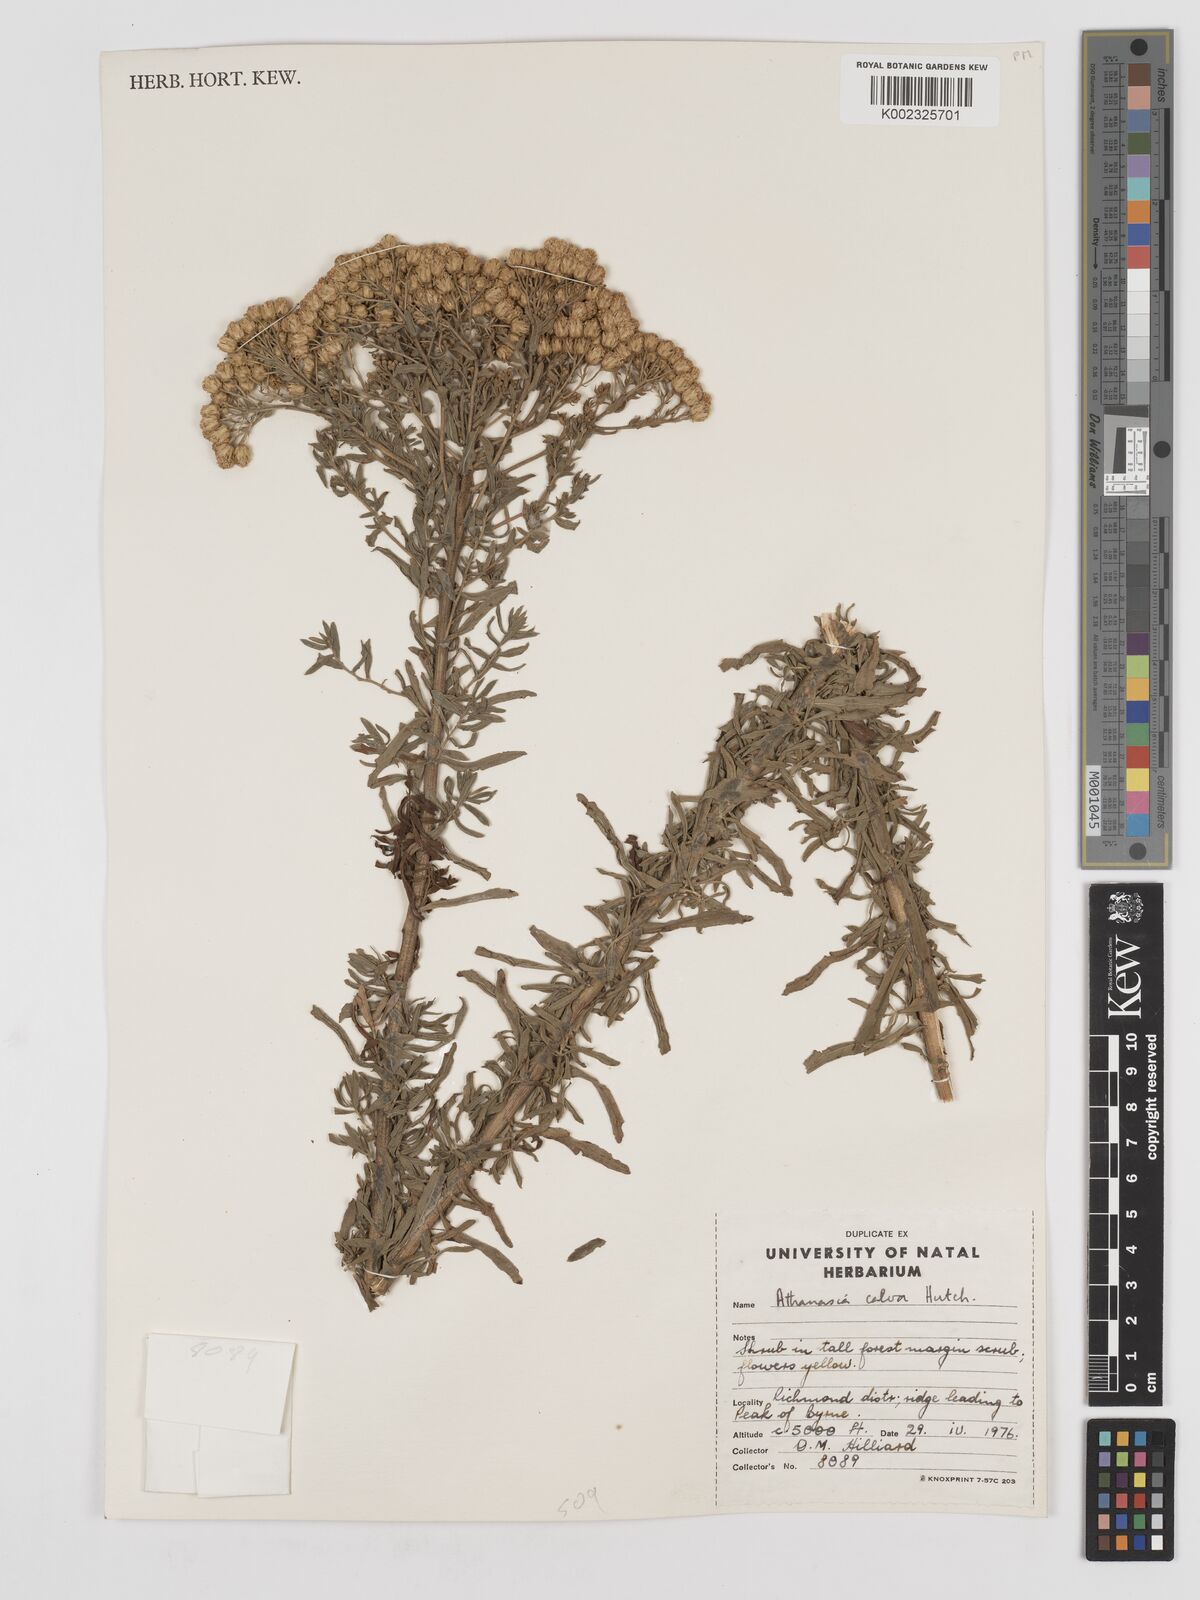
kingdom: Plantae
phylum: Tracheophyta
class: Magnoliopsida
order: Asterales
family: Asteraceae
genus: Inulanthera
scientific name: Inulanthera dregeana
